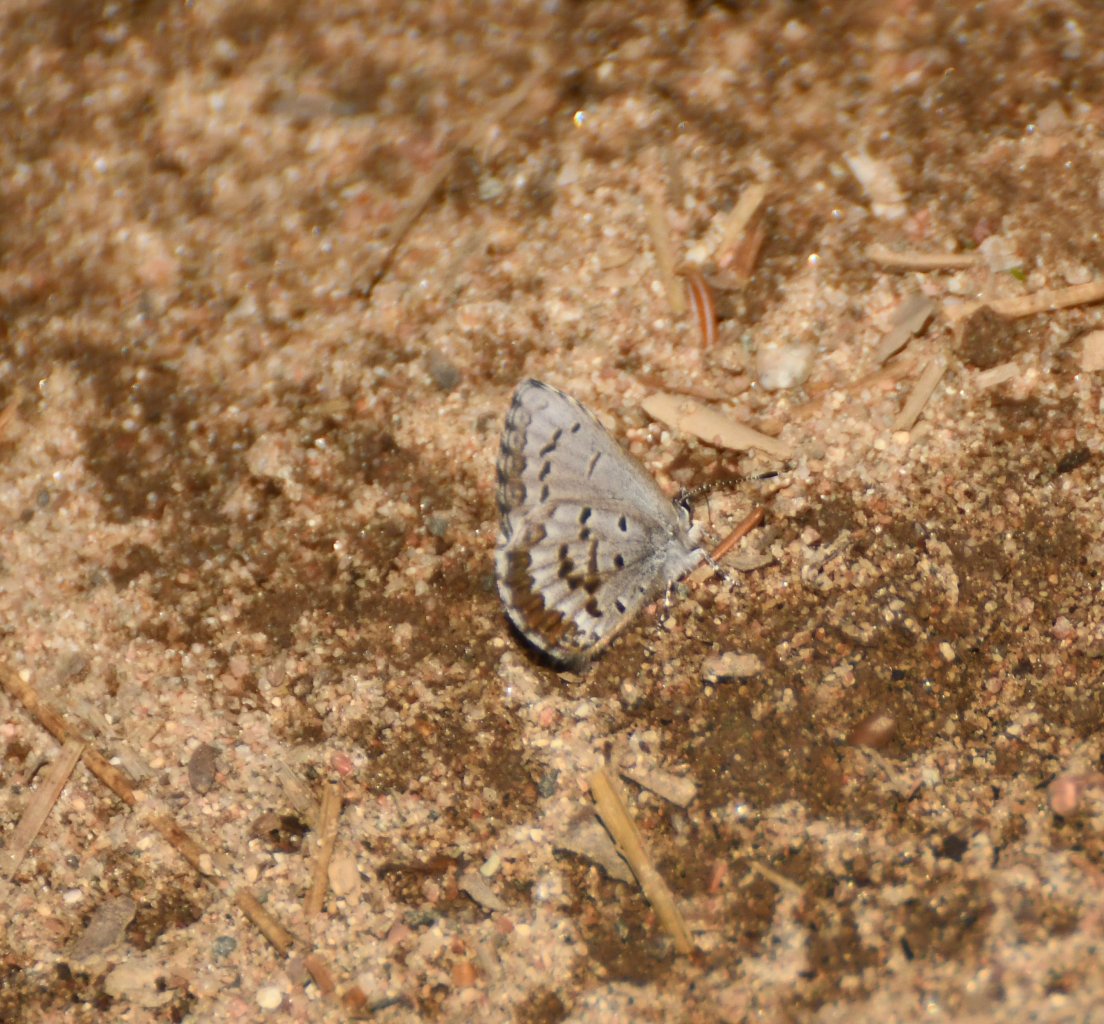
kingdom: Animalia
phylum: Arthropoda
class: Insecta
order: Lepidoptera
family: Lycaenidae
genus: Celastrina
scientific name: Celastrina lucia
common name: Northern Spring Azure
